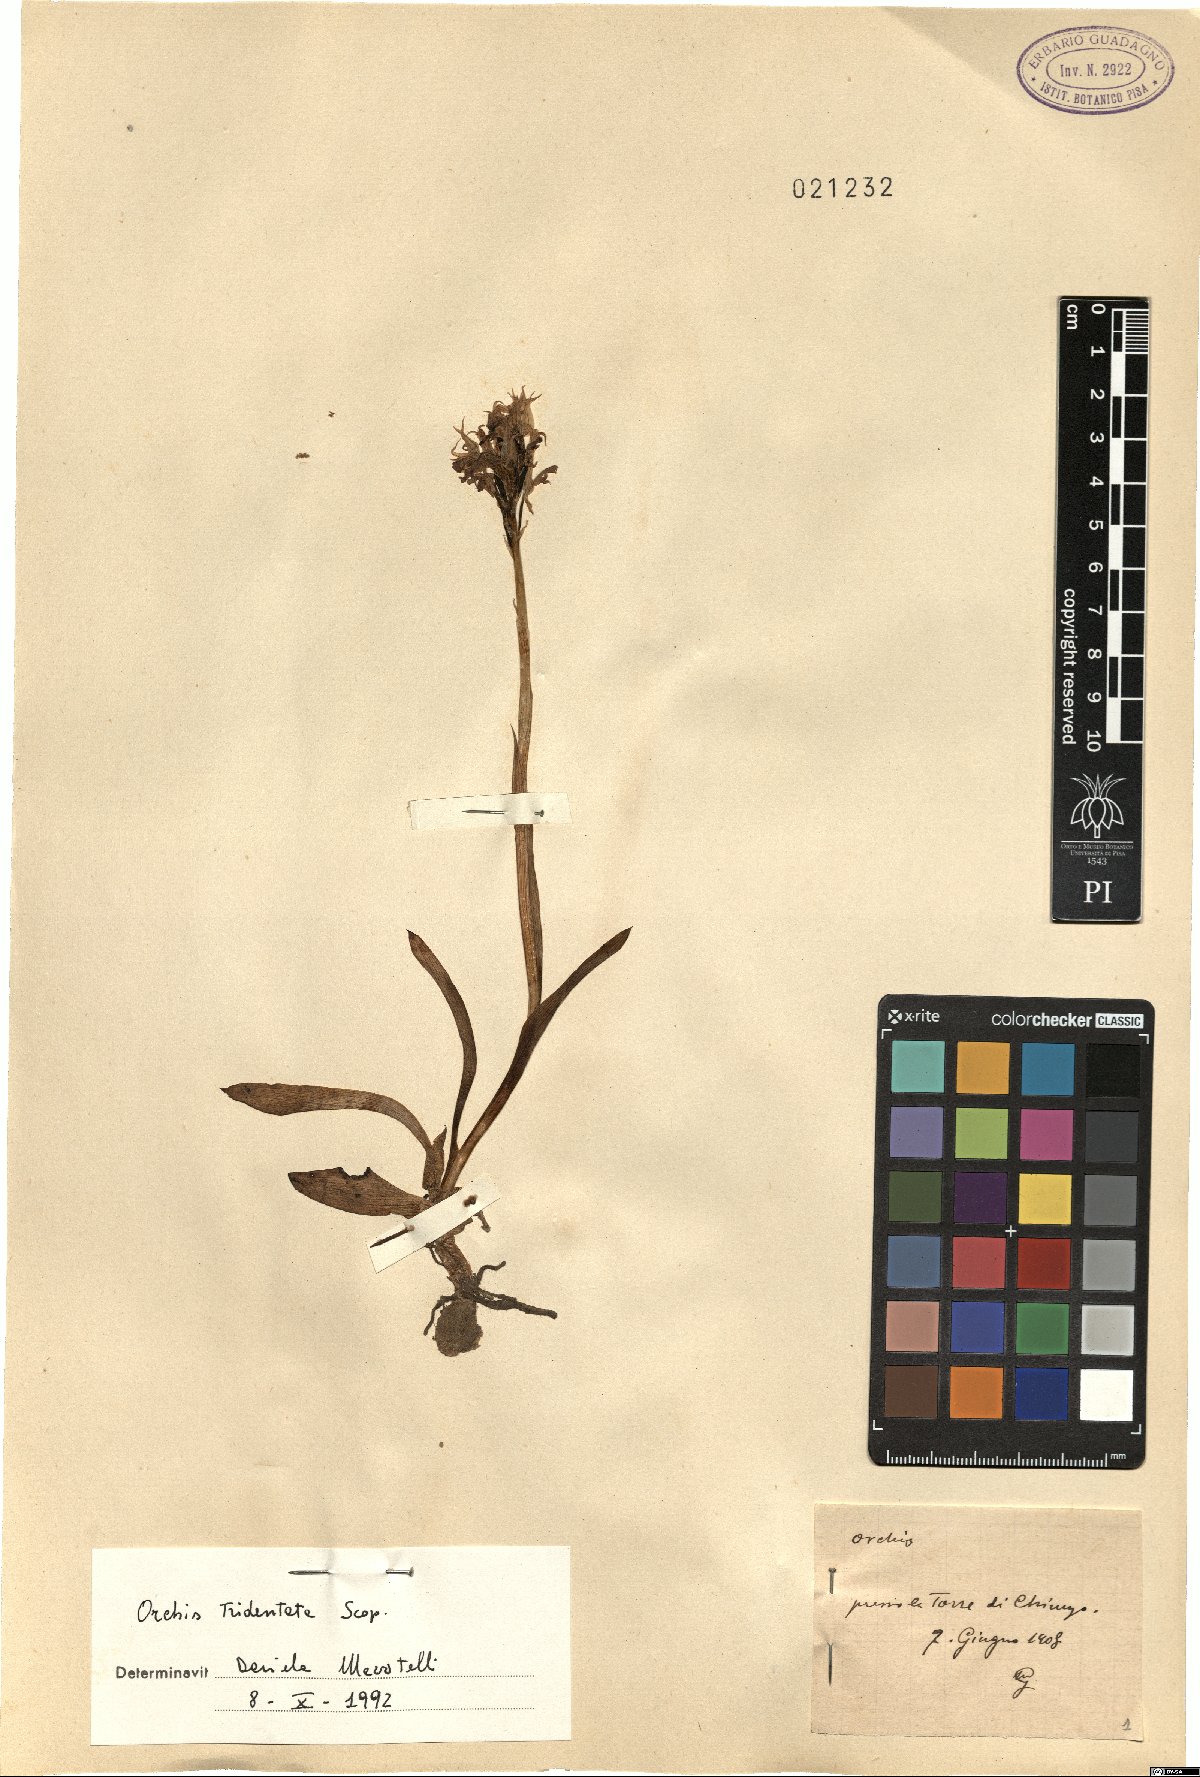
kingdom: Plantae
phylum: Tracheophyta
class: Liliopsida
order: Asparagales
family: Orchidaceae
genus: Neotinea
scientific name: Neotinea tridentata
